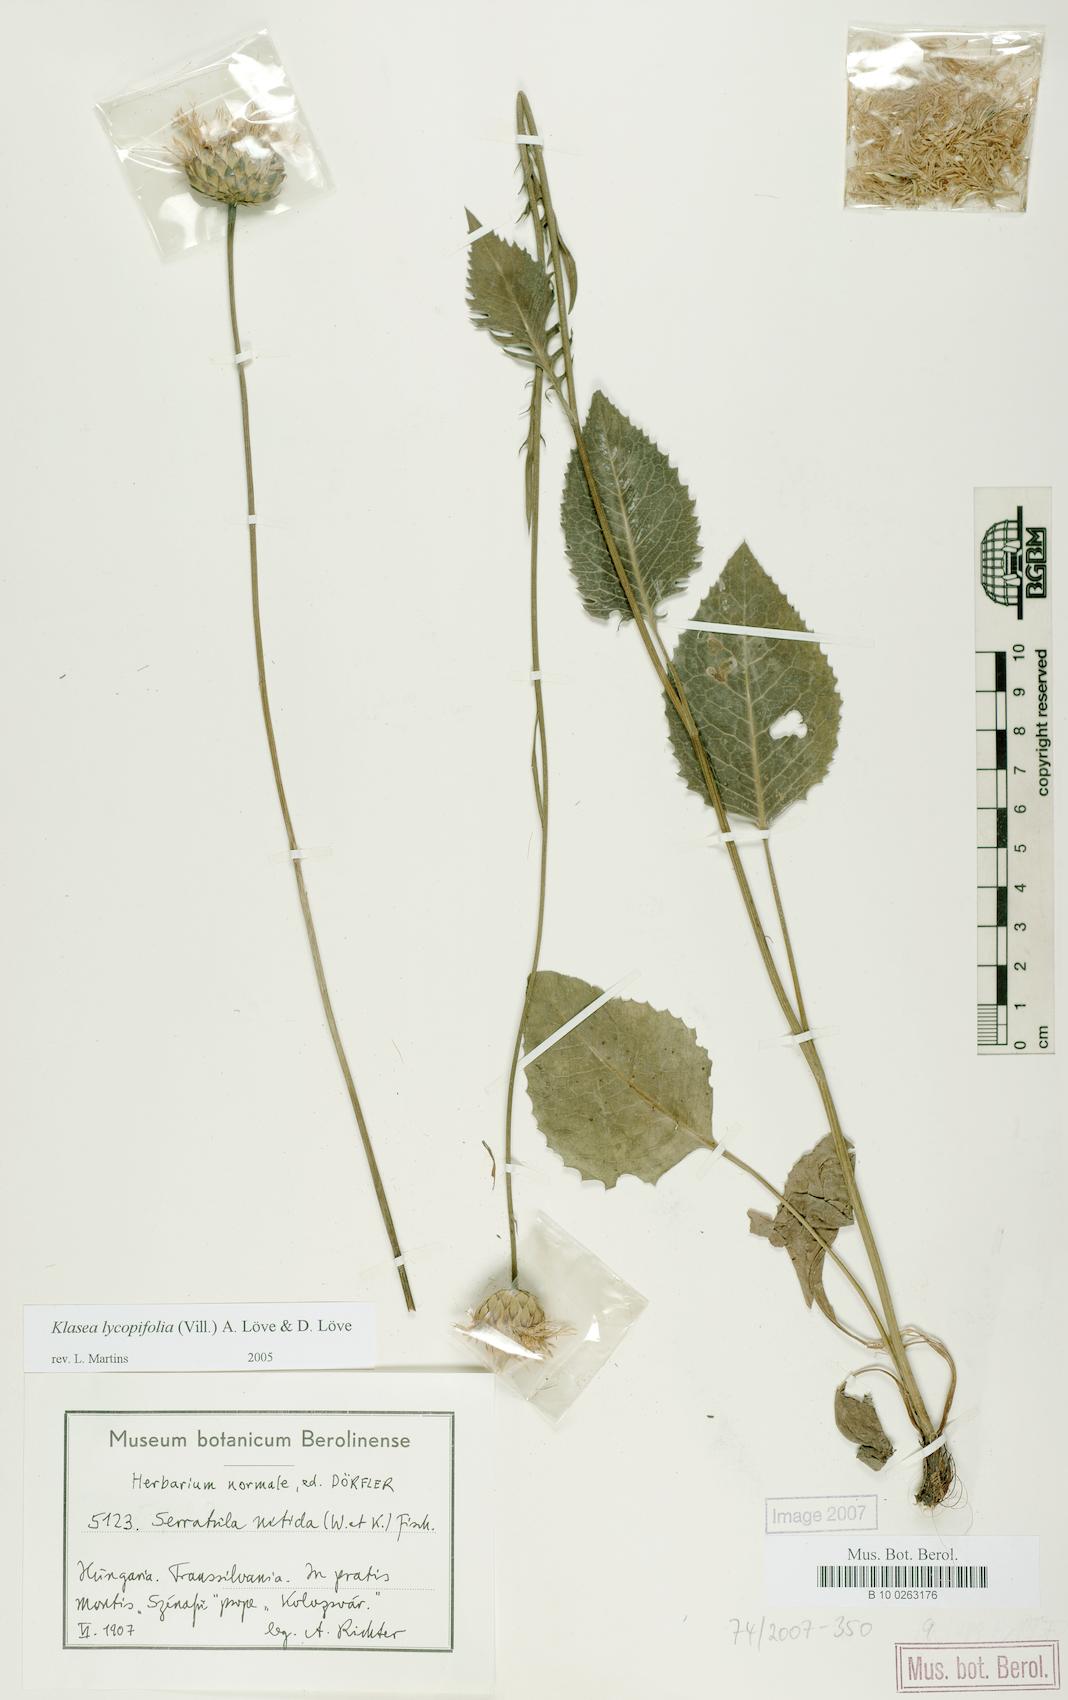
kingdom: Plantae
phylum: Tracheophyta
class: Magnoliopsida
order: Asterales
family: Asteraceae
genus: Klasea
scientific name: Klasea lycopifolia
